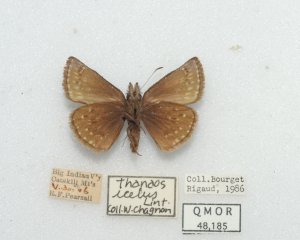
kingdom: Animalia
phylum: Arthropoda
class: Insecta
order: Lepidoptera
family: Hesperiidae
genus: Erynnis
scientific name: Erynnis icelus
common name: Dreamy Duskywing
